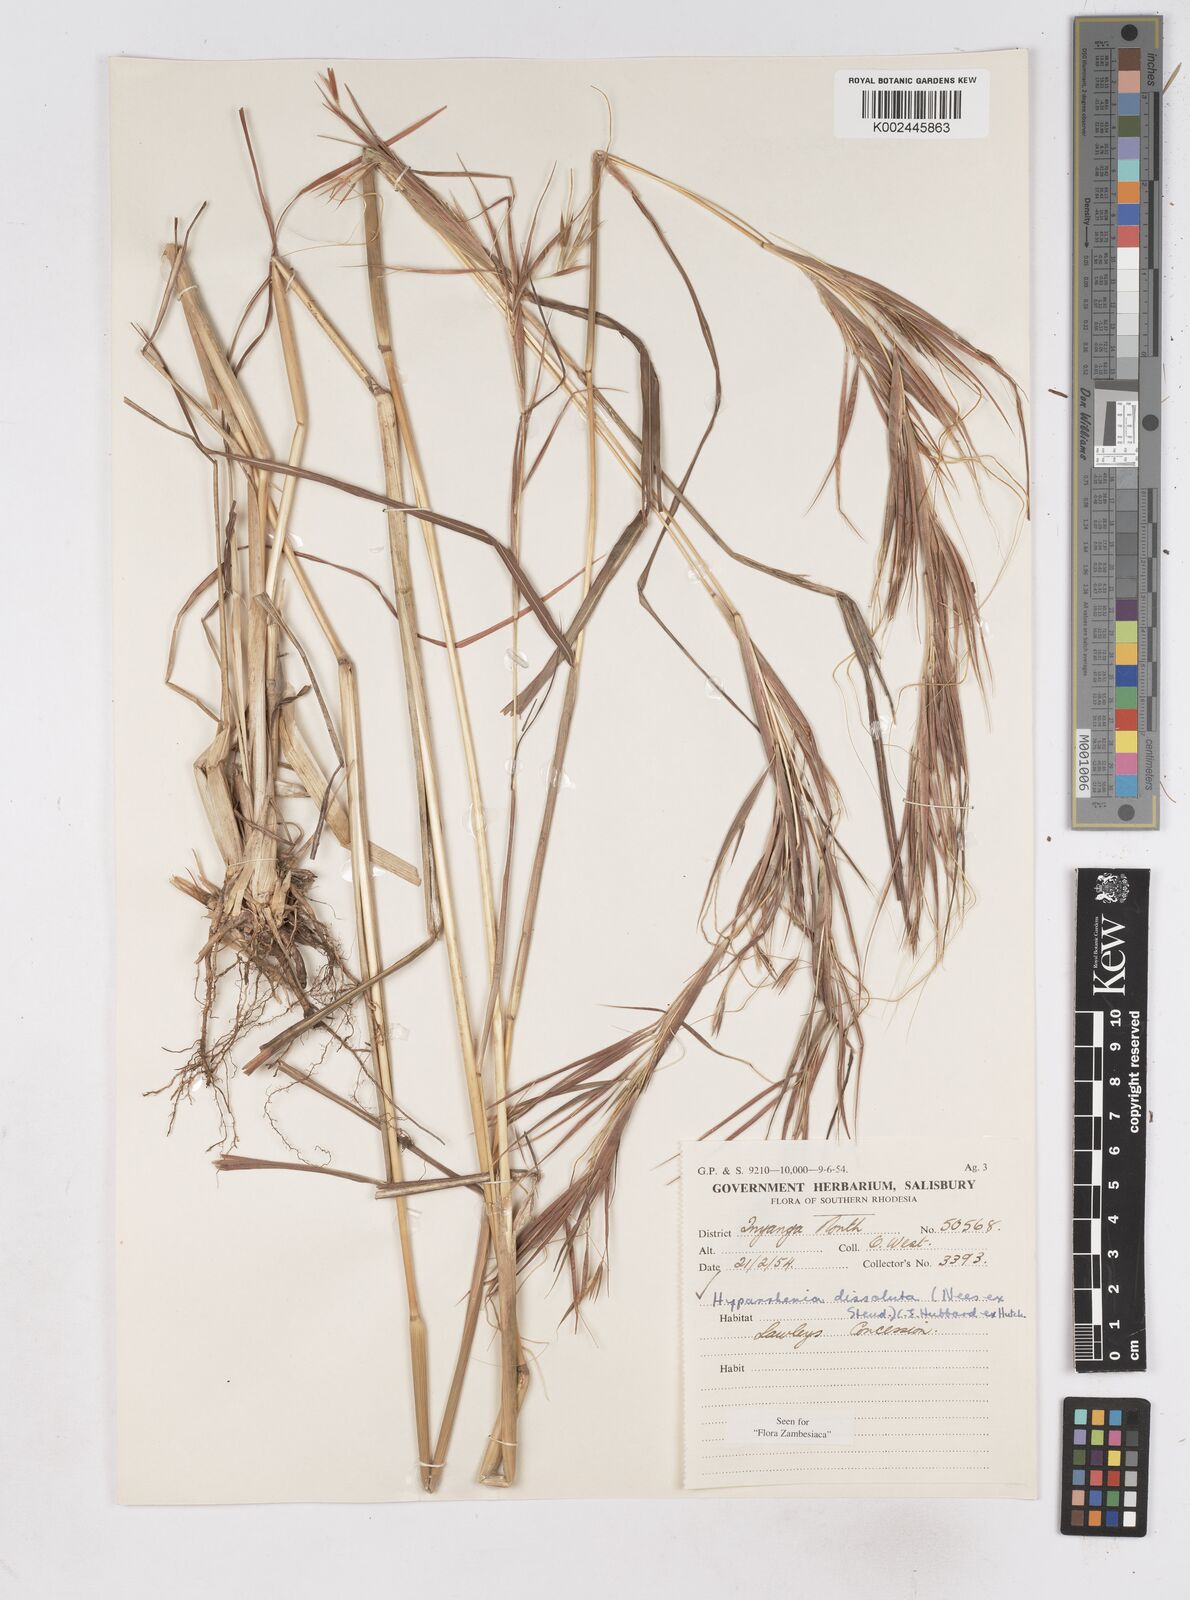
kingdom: Plantae
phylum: Tracheophyta
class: Liliopsida
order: Poales
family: Poaceae
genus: Hyperthelia
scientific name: Hyperthelia dissoluta
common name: Yellow thatching grass
